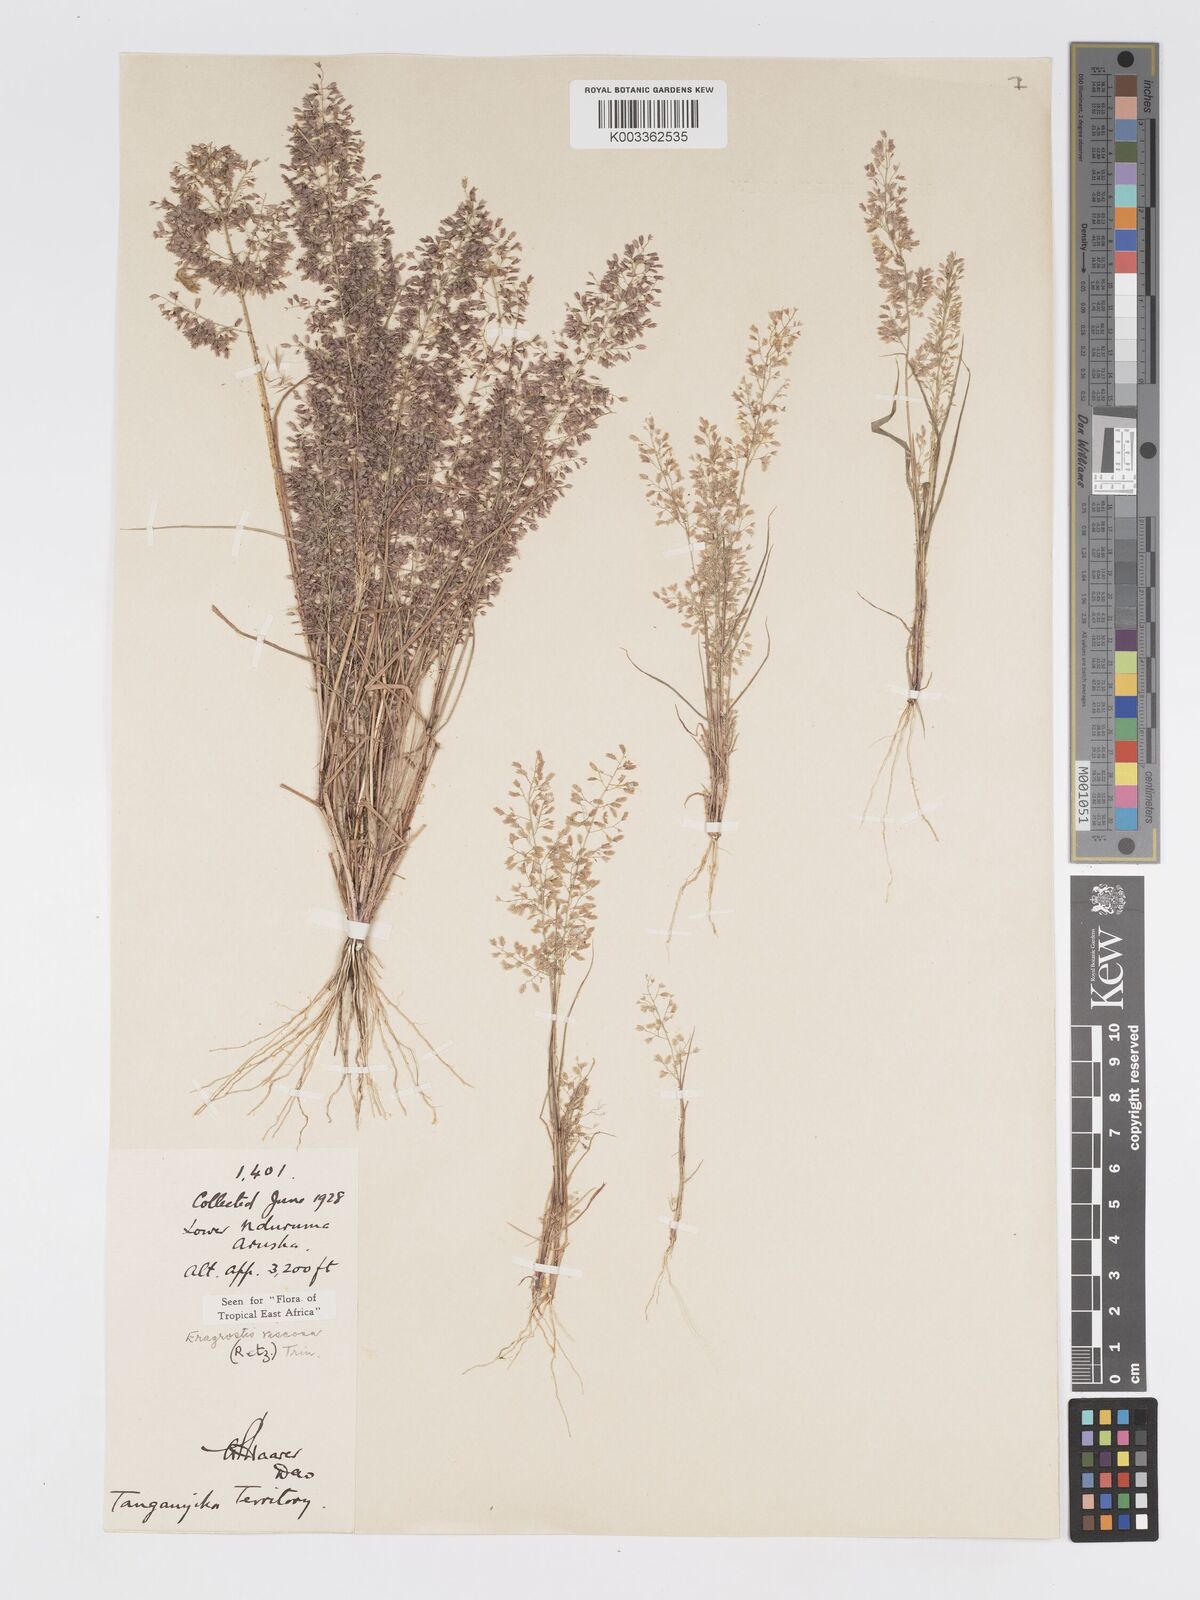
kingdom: Plantae
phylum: Tracheophyta
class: Liliopsida
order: Poales
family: Poaceae
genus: Eragrostis
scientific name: Eragrostis viscosa
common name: Sticky love grass
